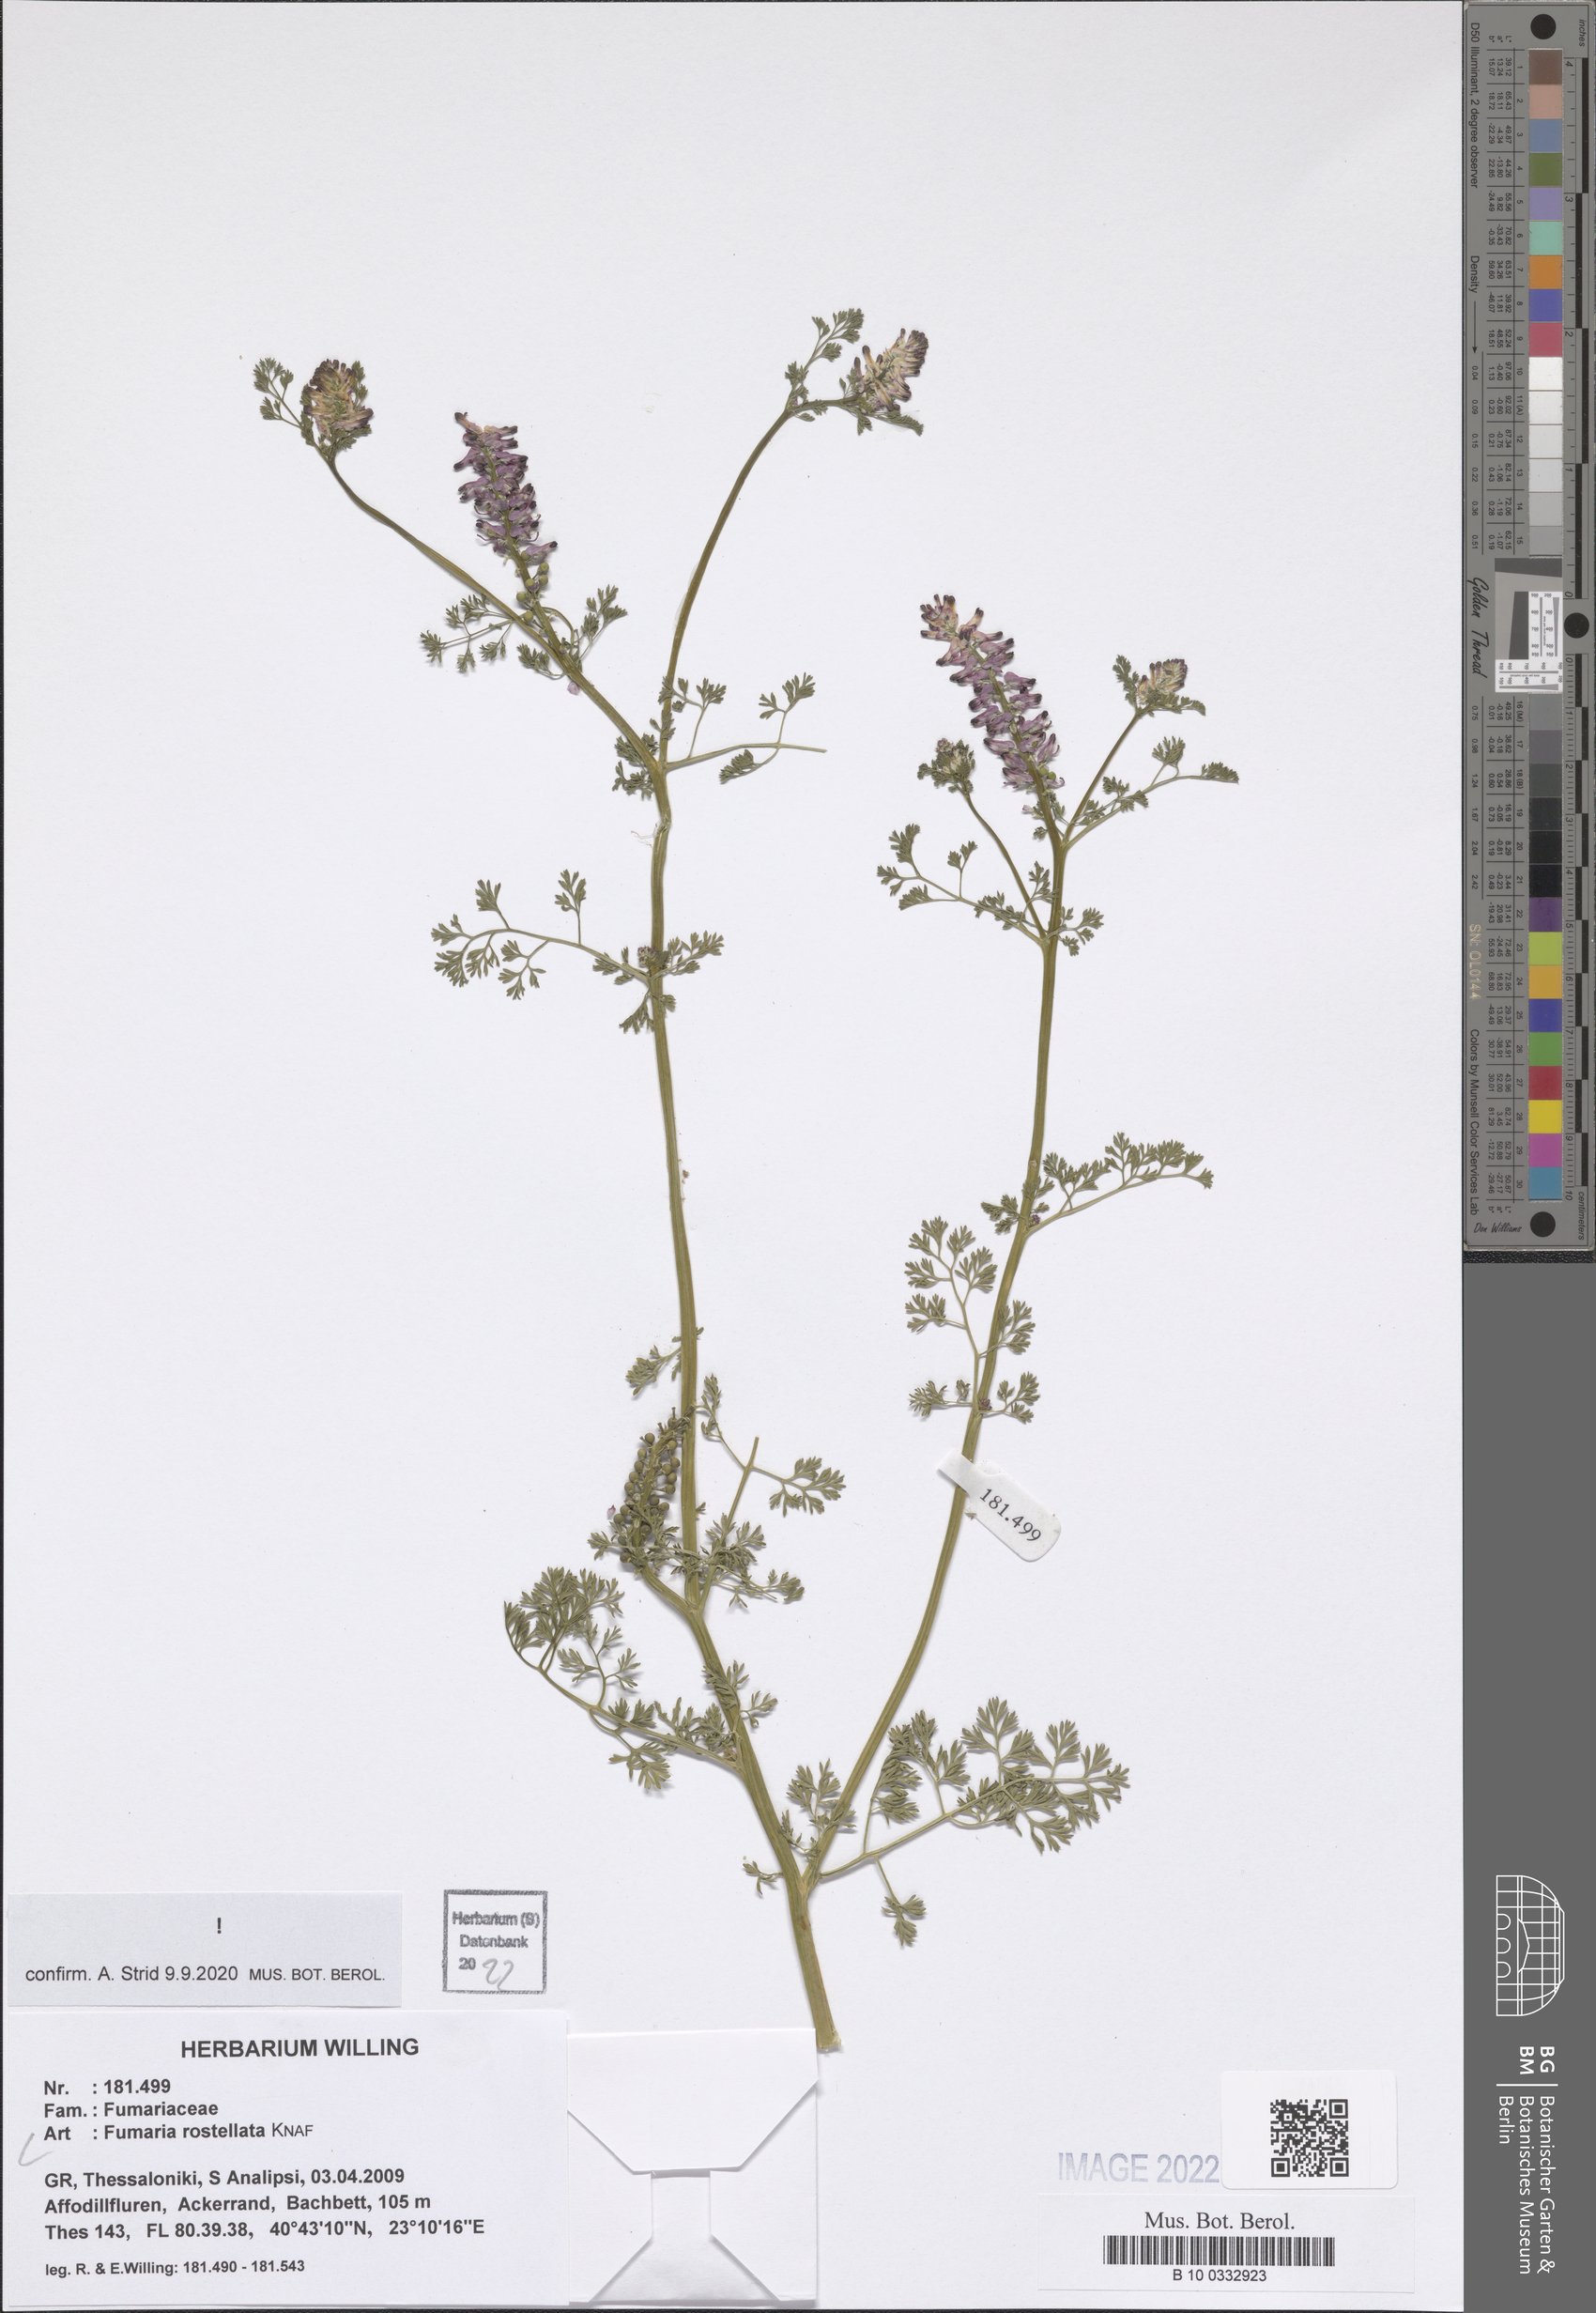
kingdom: Plantae
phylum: Tracheophyta
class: Magnoliopsida
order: Ranunculales
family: Papaveraceae
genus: Fumaria
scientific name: Fumaria rostellata
